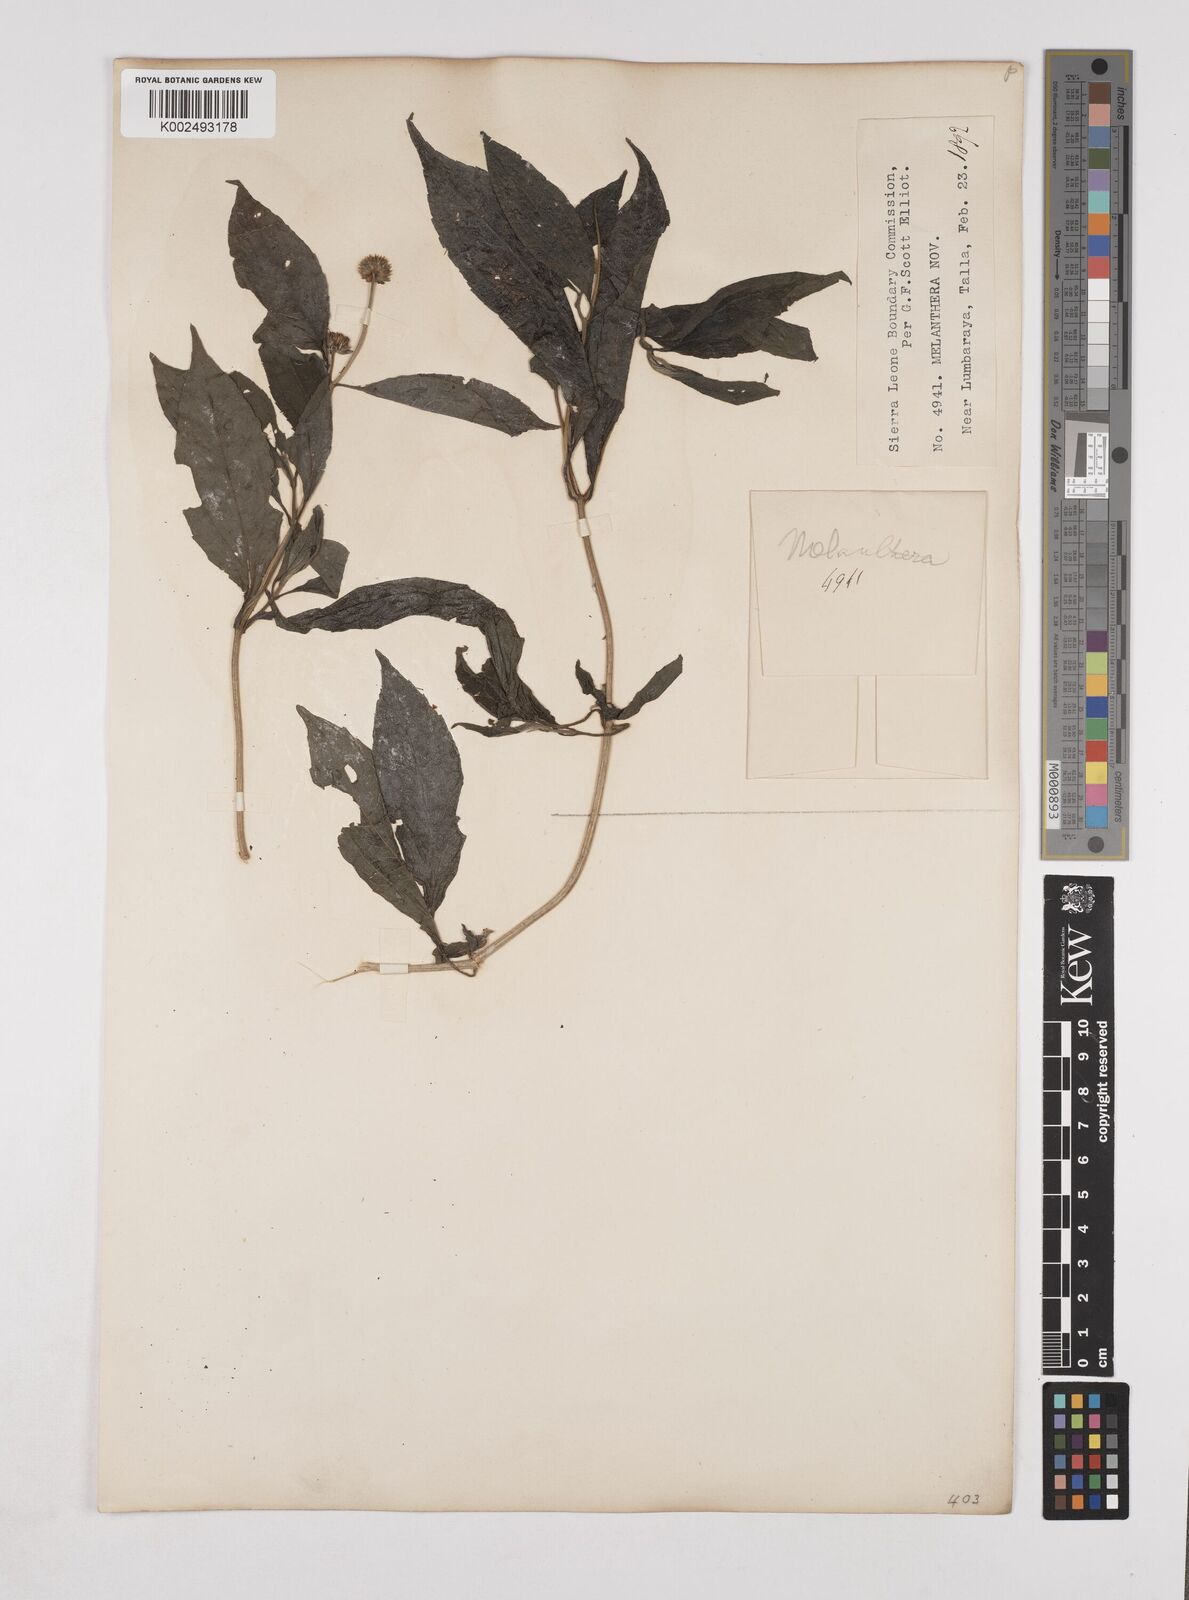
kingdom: Plantae
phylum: Tracheophyta
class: Magnoliopsida
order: Asterales
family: Asteraceae
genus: Lipotriche
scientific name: Lipotriche scandens
